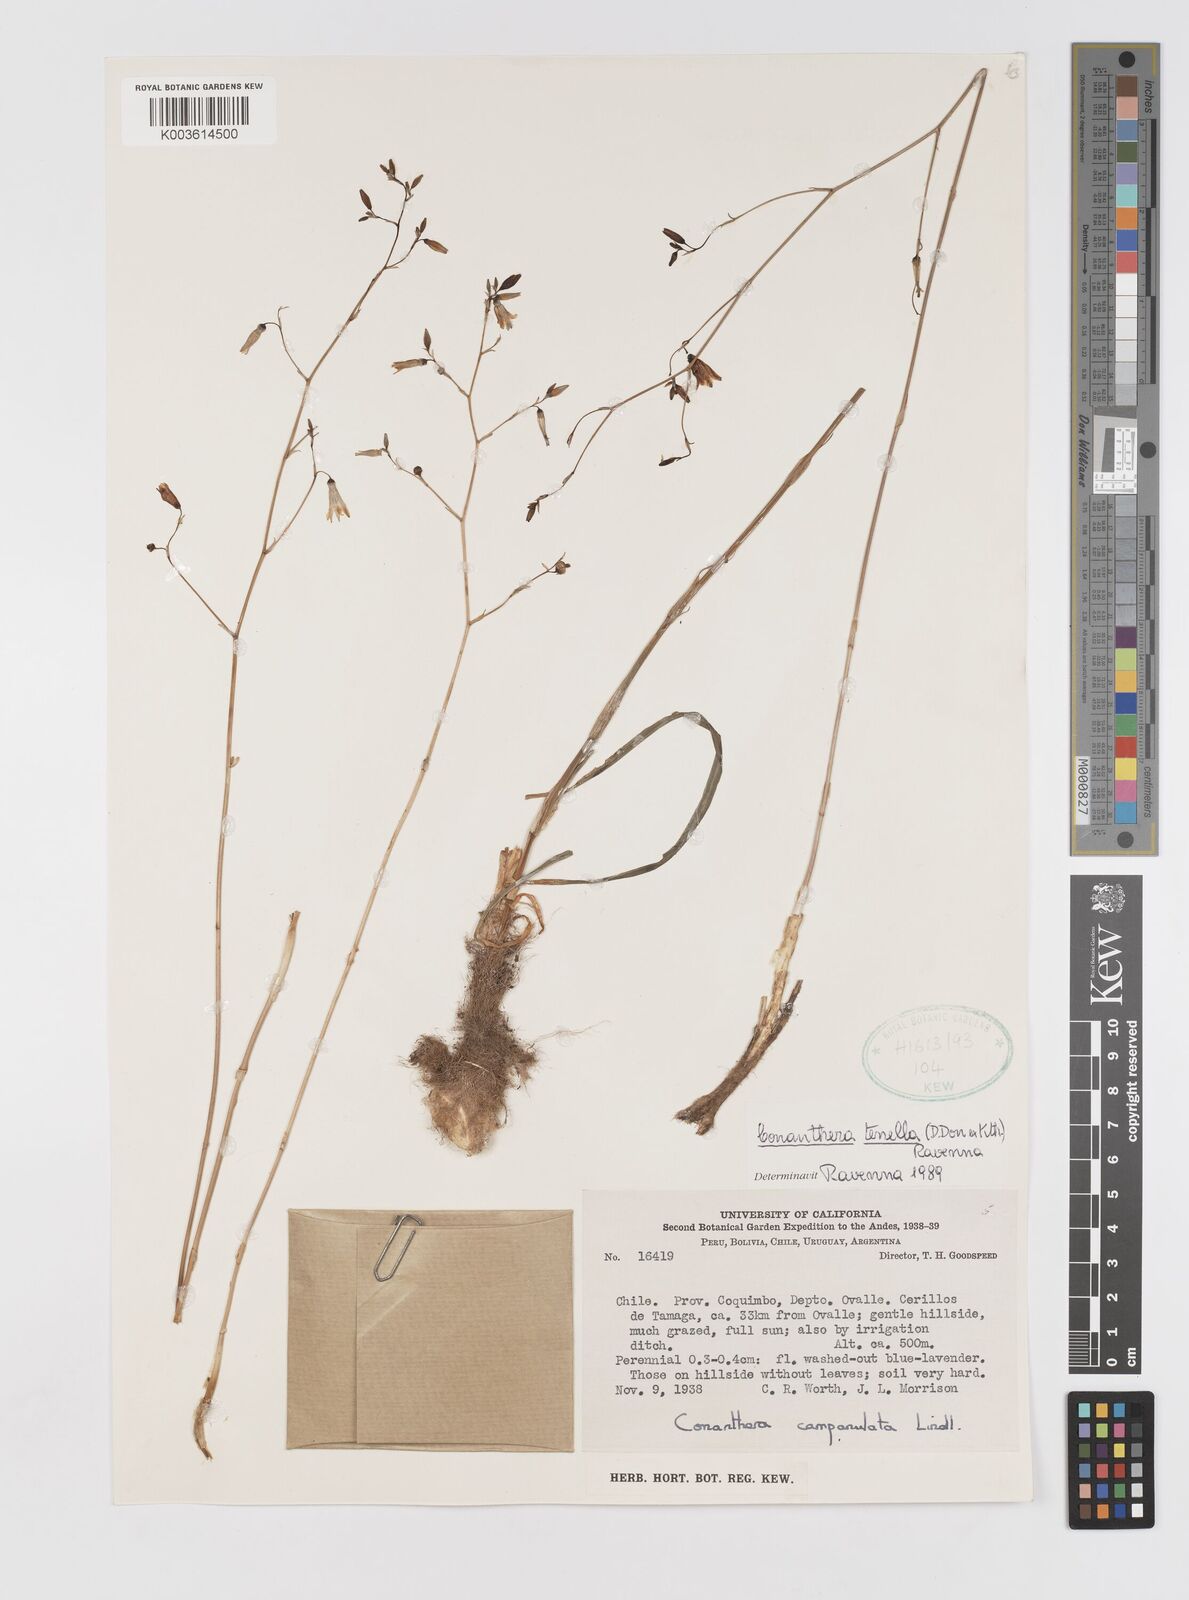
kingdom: Plantae
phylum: Tracheophyta
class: Liliopsida
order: Asparagales
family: Tecophilaeaceae
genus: Conanthera
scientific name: Conanthera campanulata
